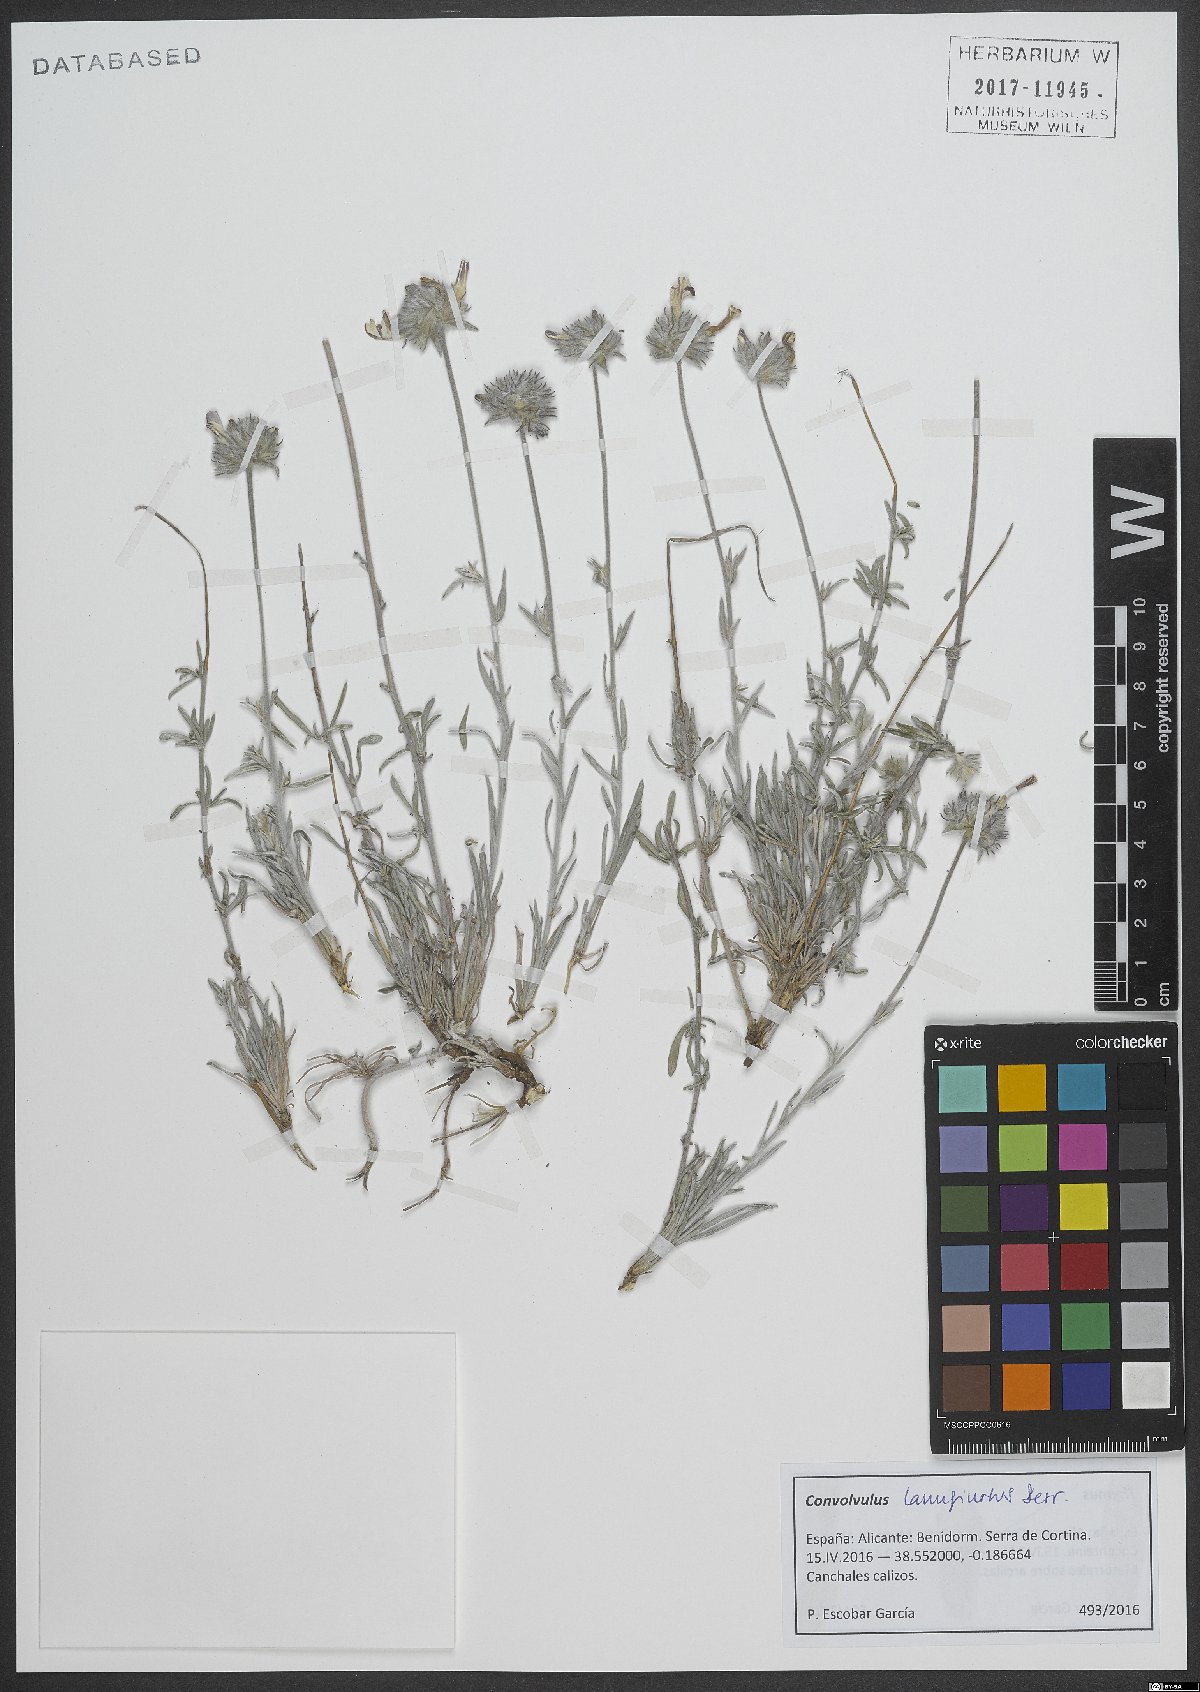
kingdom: Plantae
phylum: Tracheophyta
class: Magnoliopsida
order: Solanales
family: Convolvulaceae
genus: Convolvulus
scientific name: Convolvulus lanuginosus
